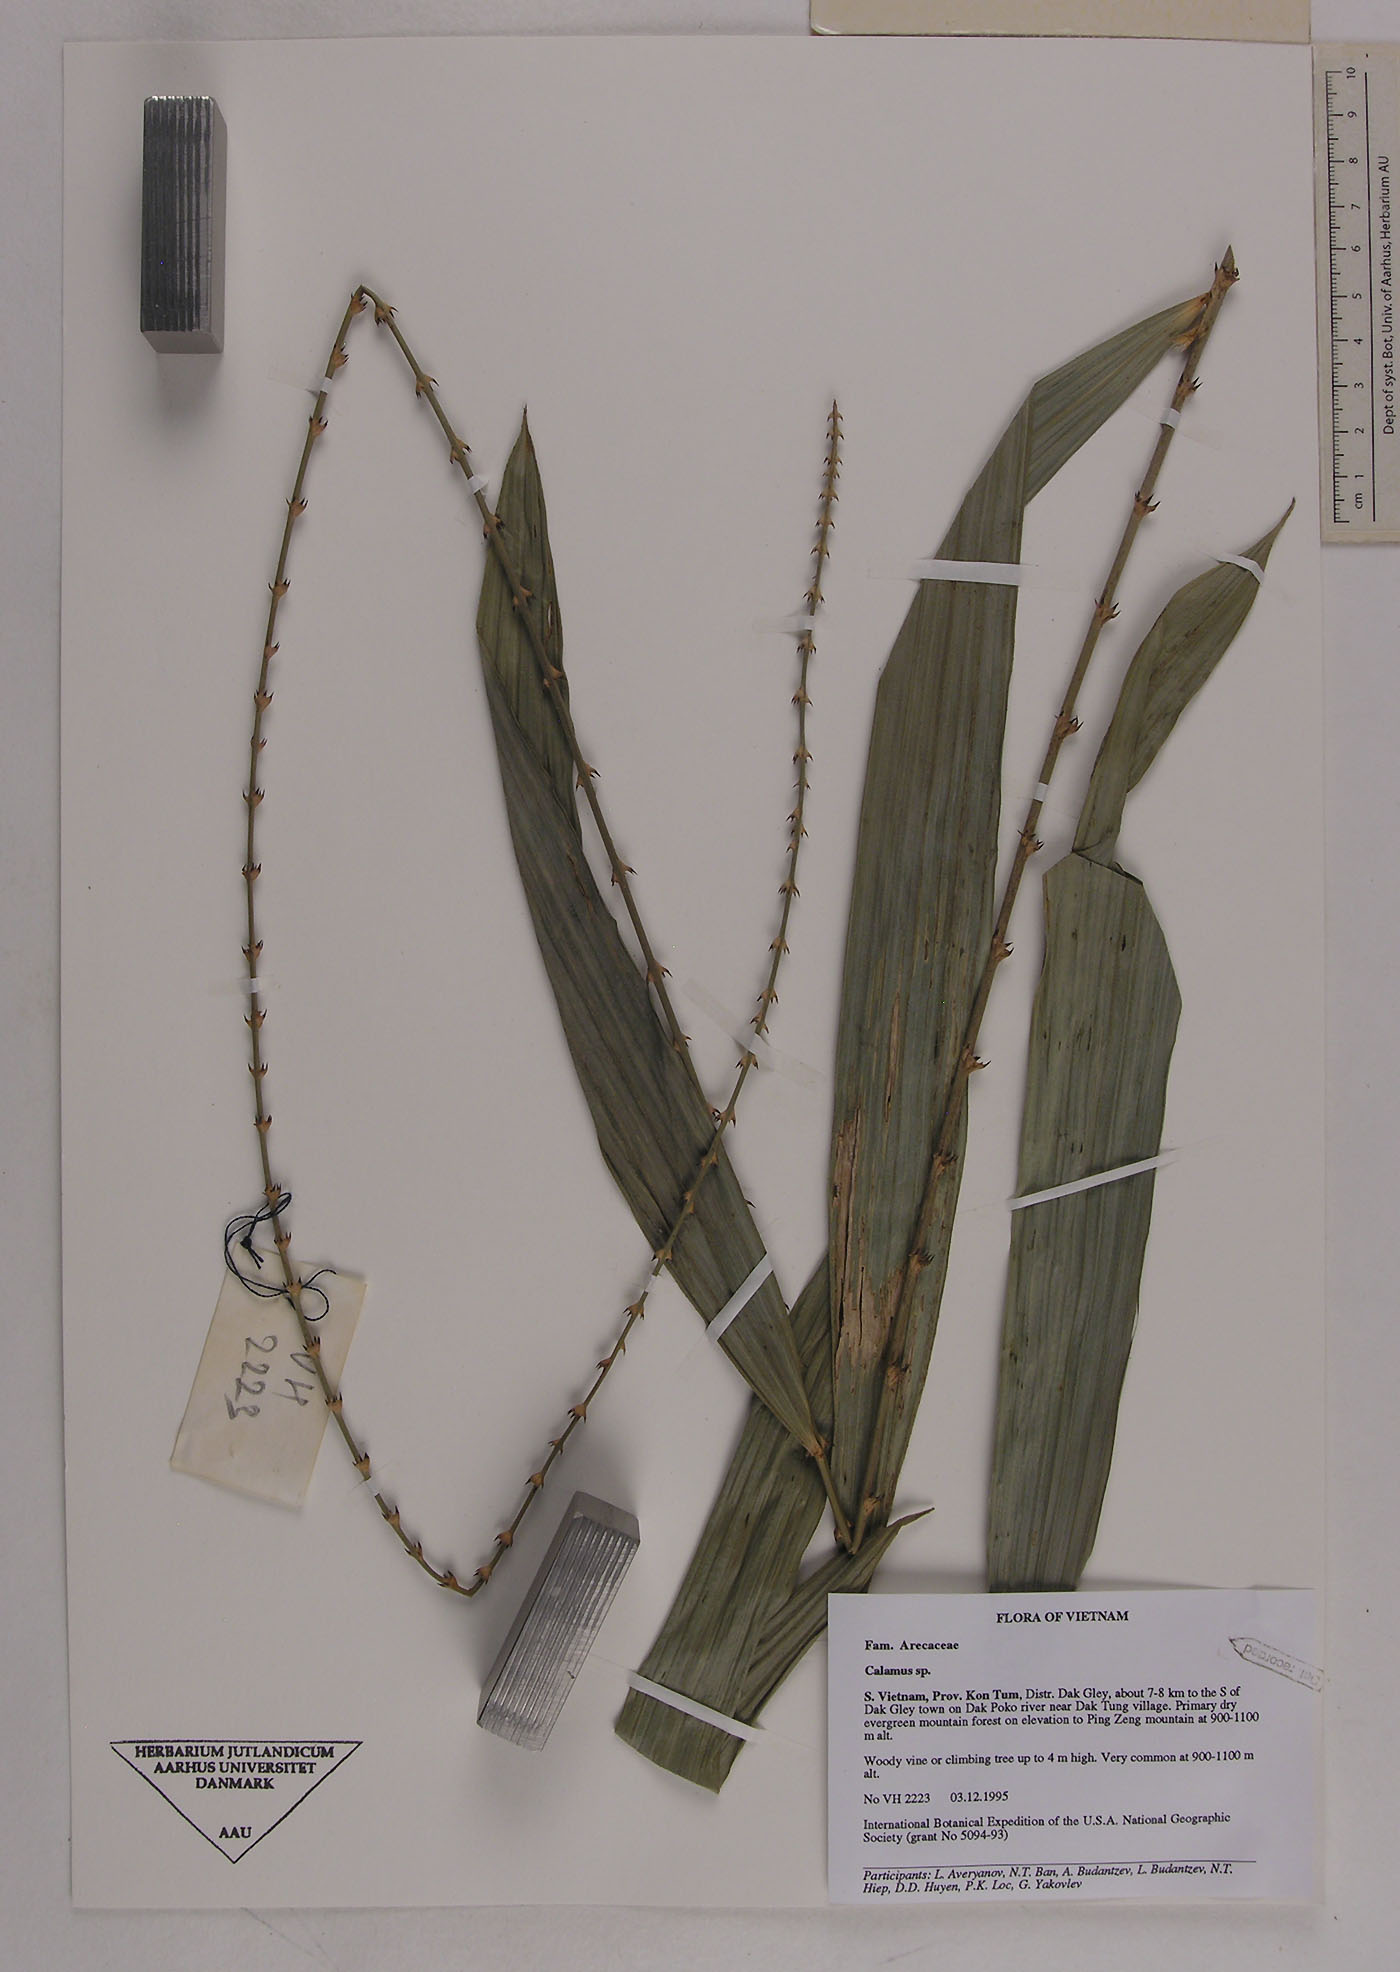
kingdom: Plantae
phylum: Tracheophyta
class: Liliopsida
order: Arecales
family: Arecaceae
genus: Calamus
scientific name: Calamus latifolius
